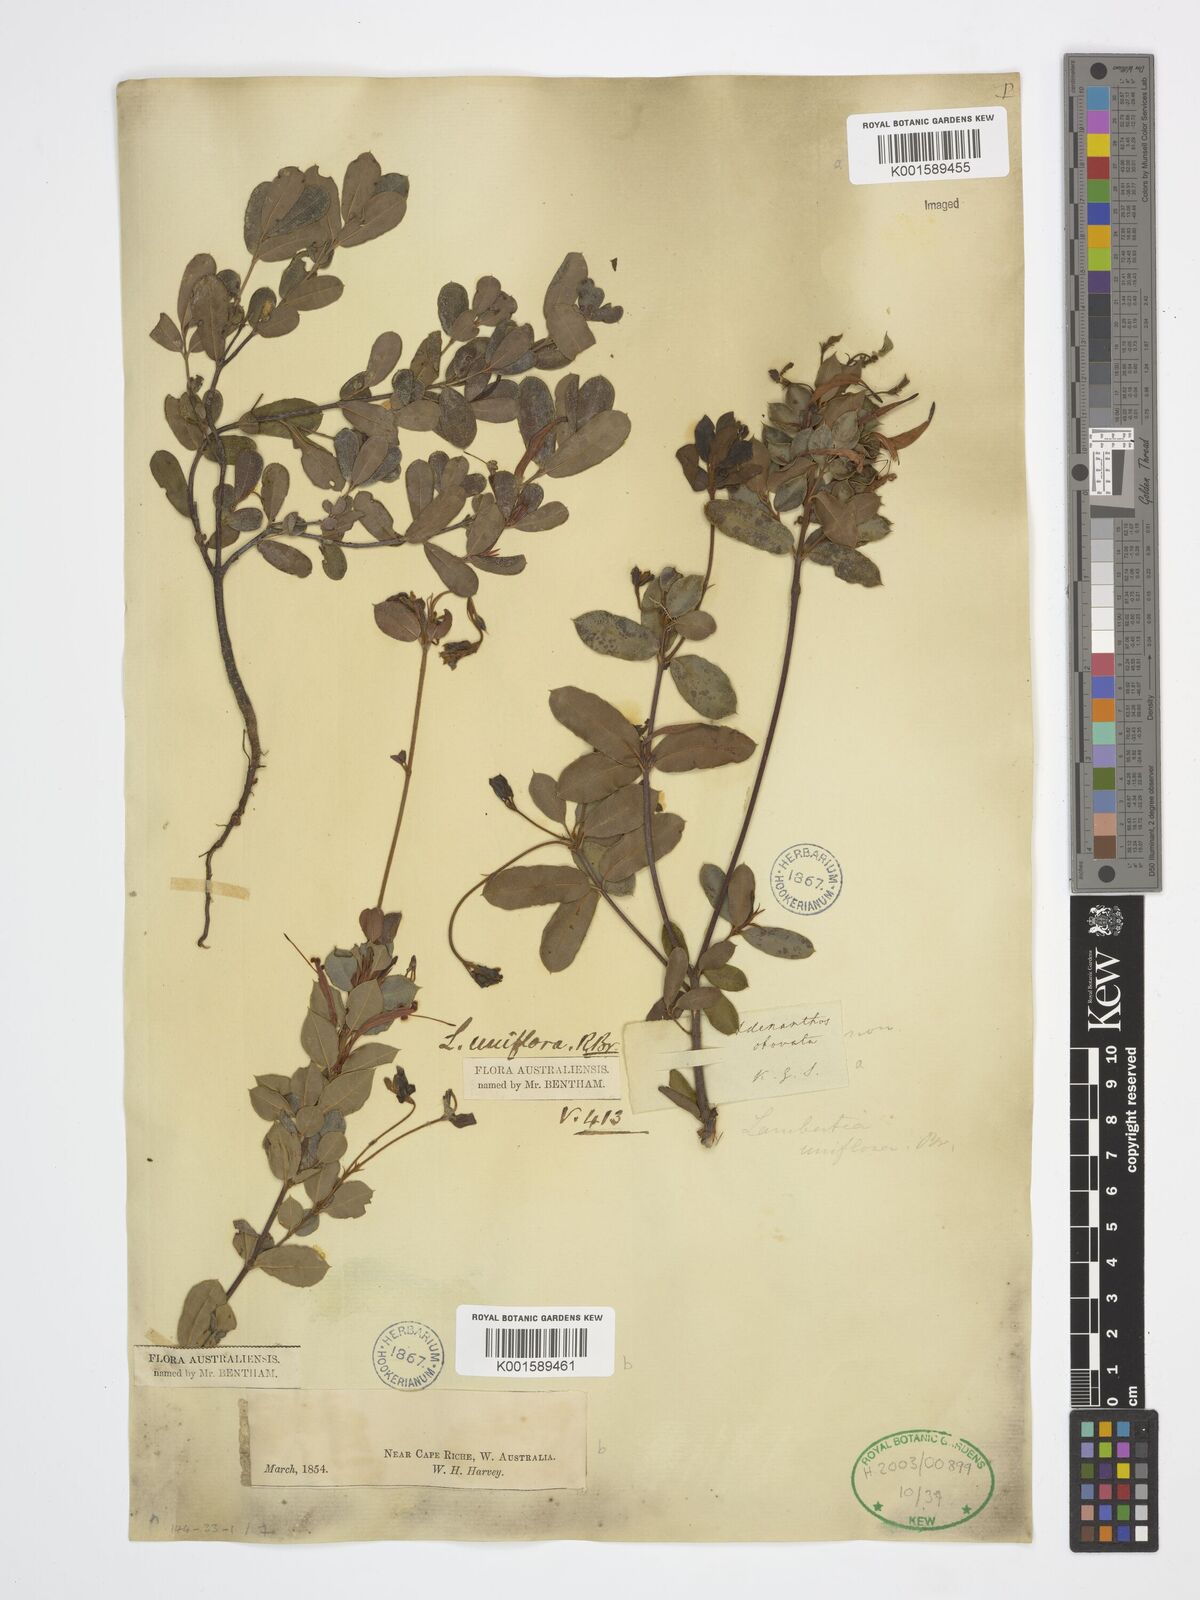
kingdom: Plantae
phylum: Tracheophyta
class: Magnoliopsida
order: Proteales
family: Proteaceae
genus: Lambertia
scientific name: Lambertia uniflora
